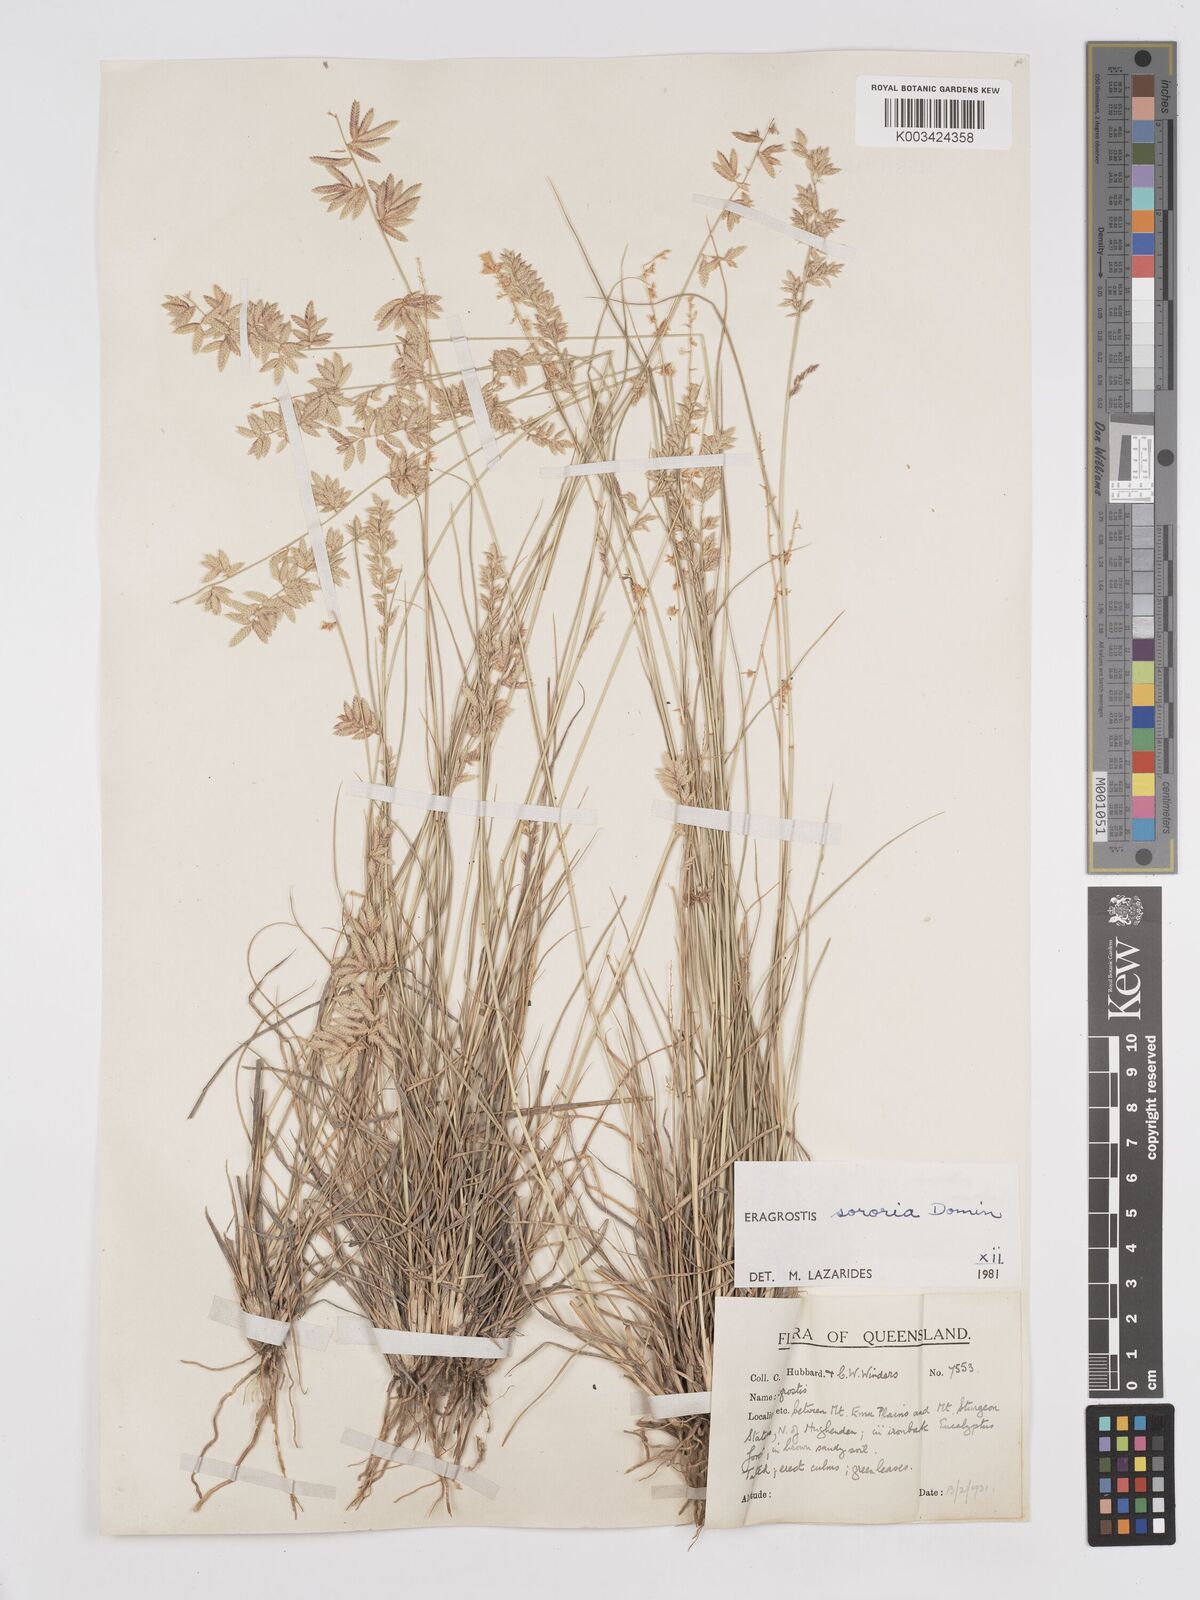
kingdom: Plantae
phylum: Tracheophyta
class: Liliopsida
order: Poales
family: Poaceae
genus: Eragrostis
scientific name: Eragrostis sororia
